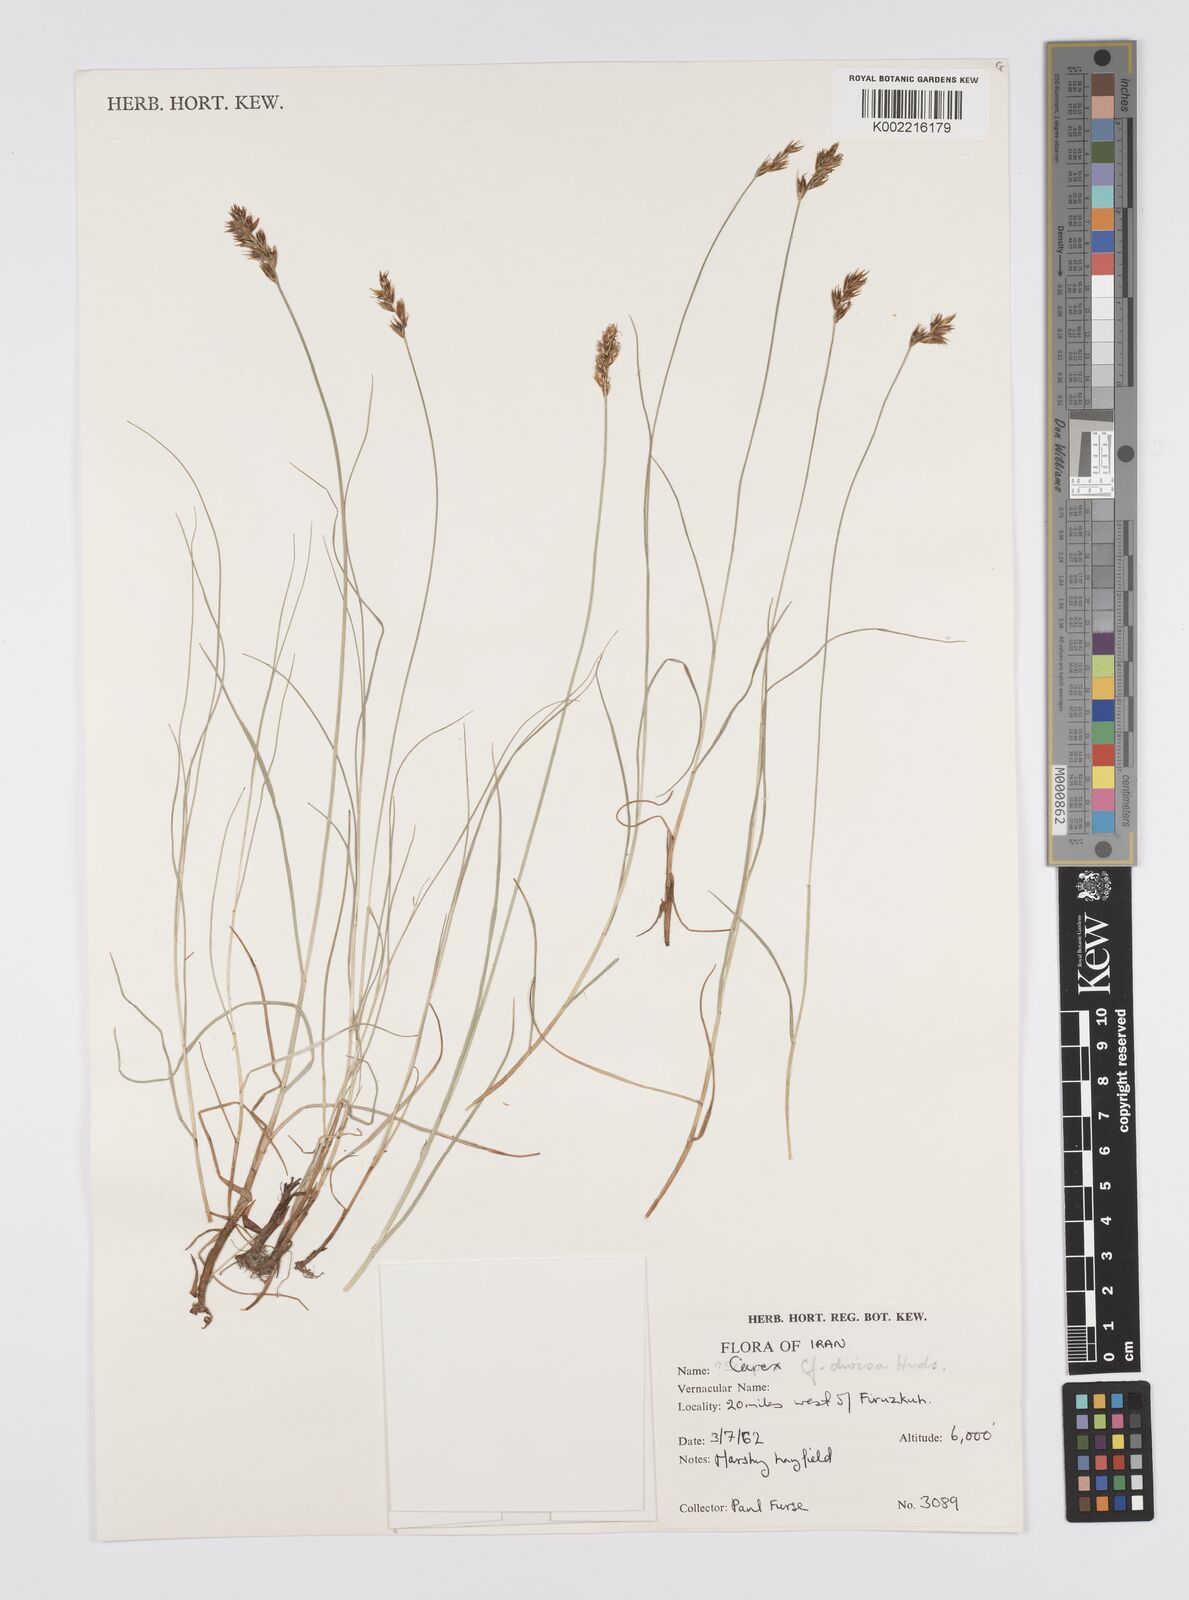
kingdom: Plantae
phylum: Tracheophyta
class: Liliopsida
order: Poales
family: Cyperaceae
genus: Carex
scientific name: Carex divisa
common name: Divided sedge
